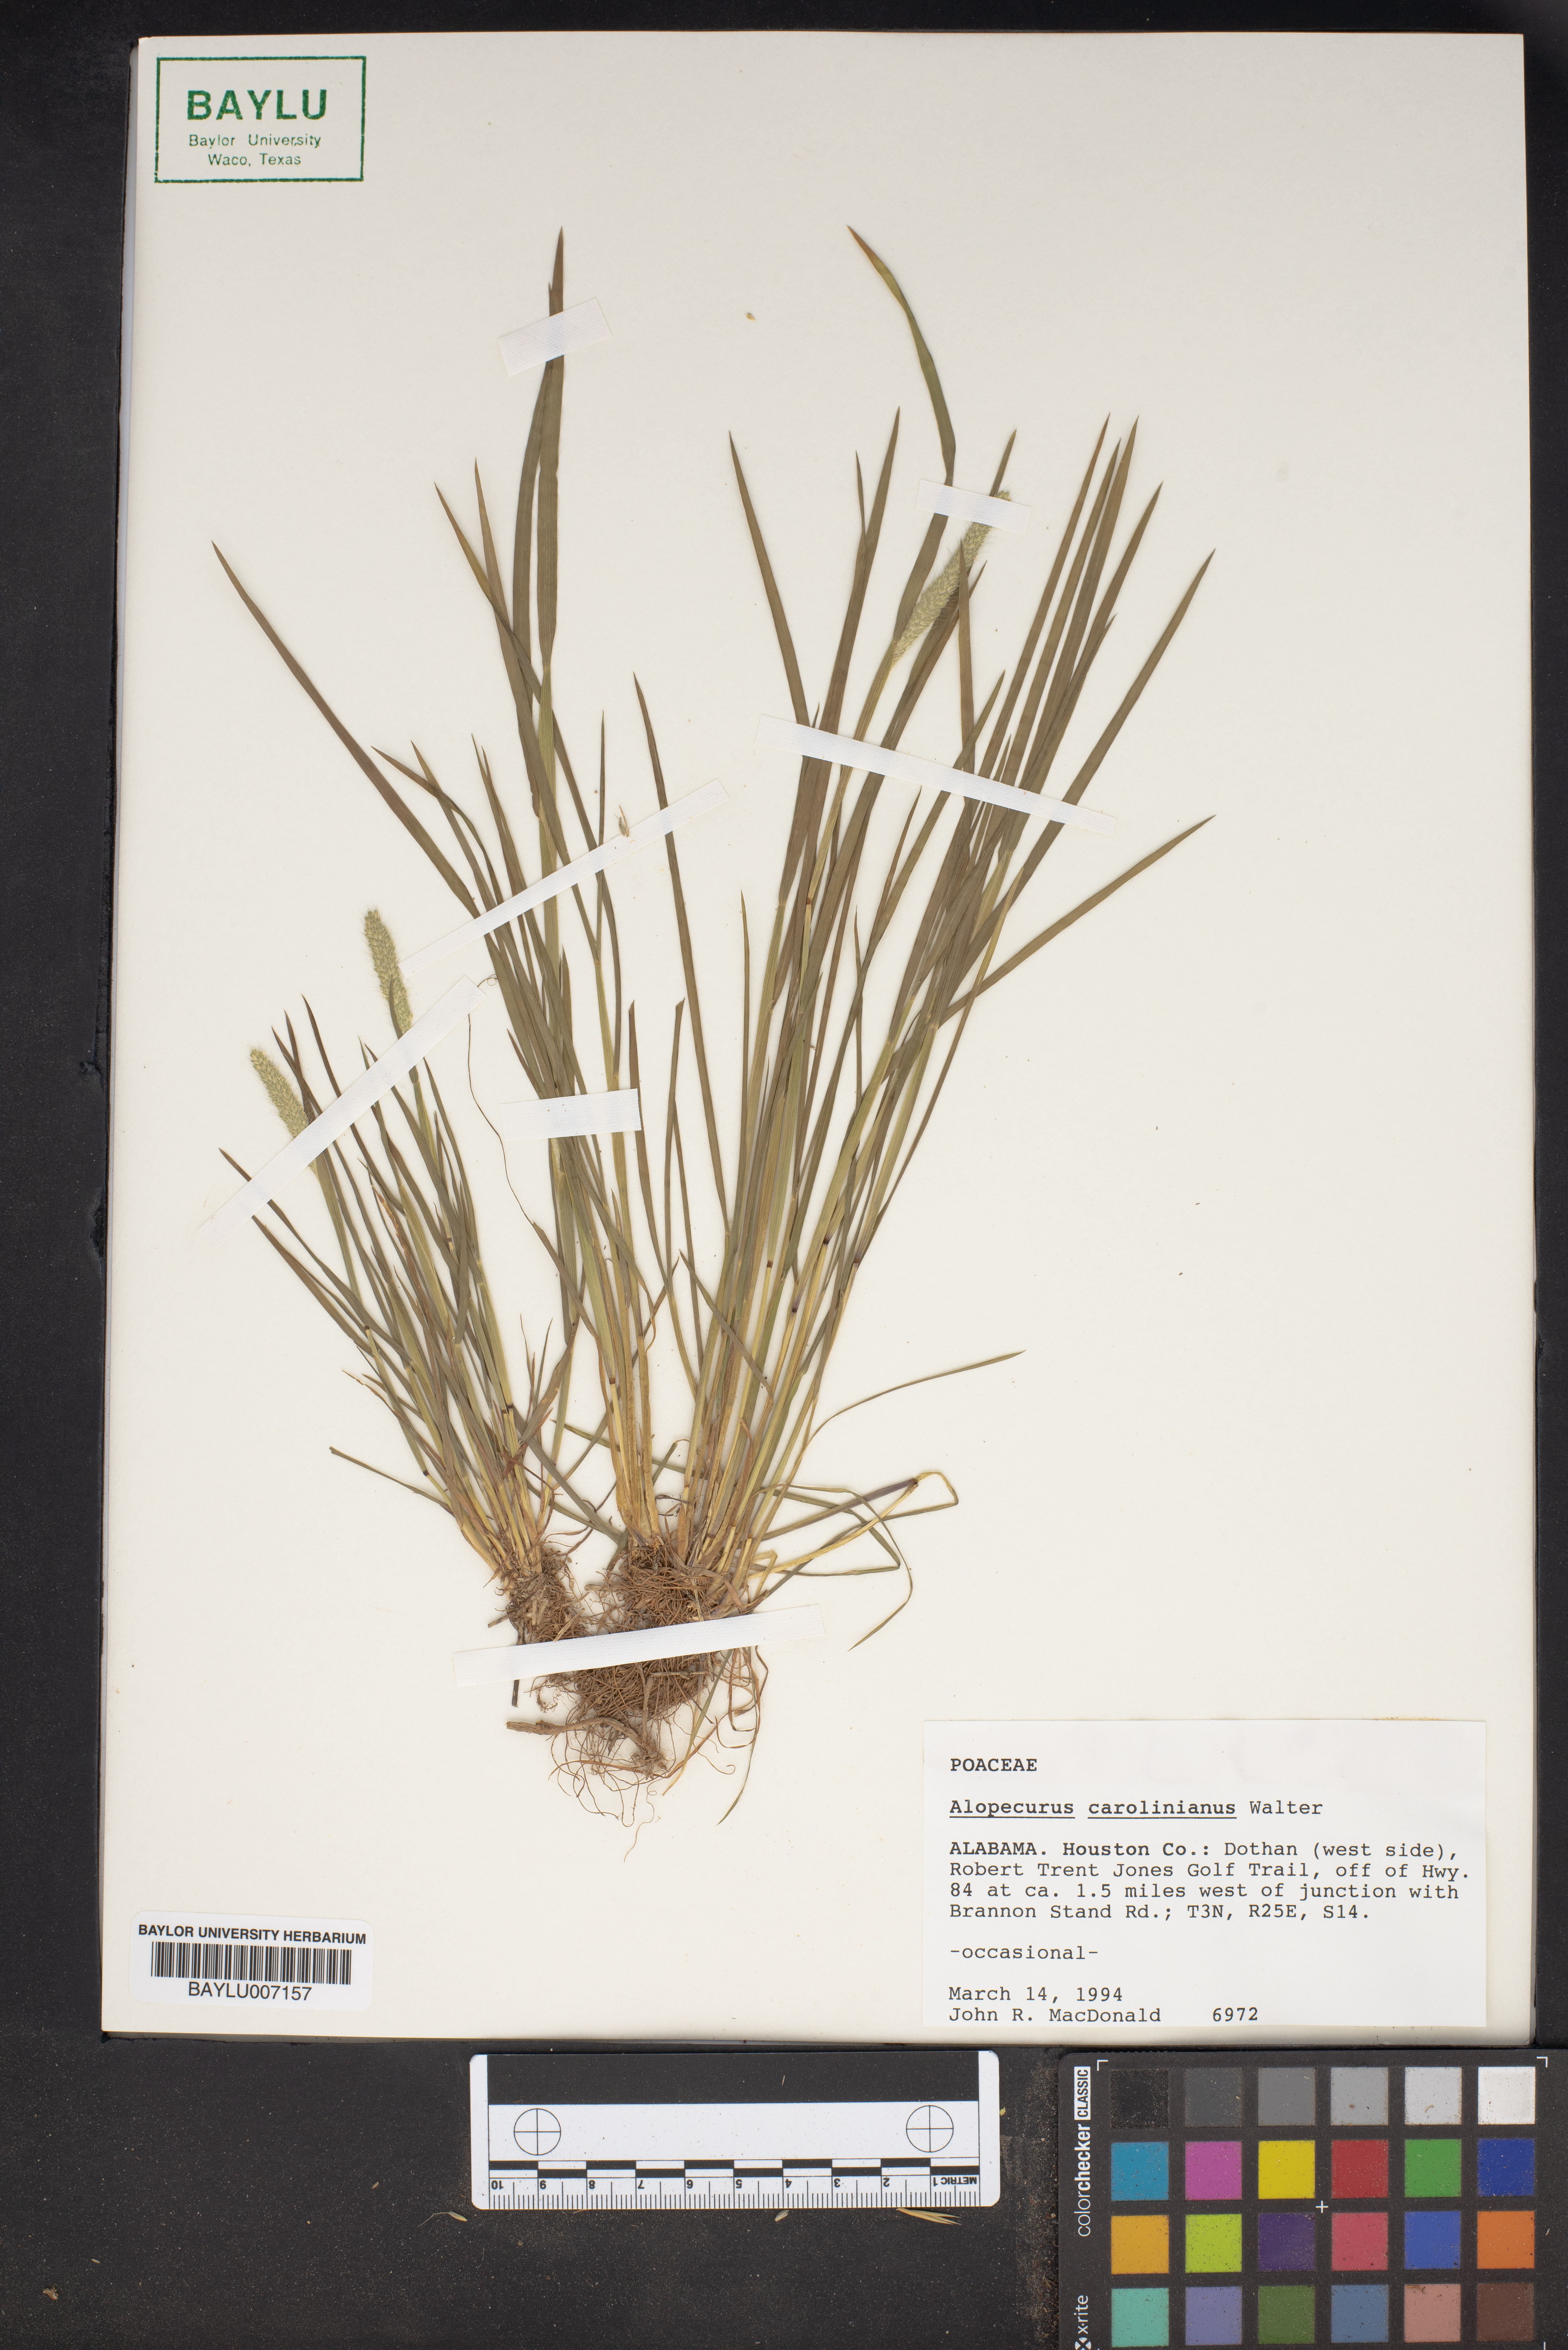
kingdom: Plantae
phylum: Tracheophyta
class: Liliopsida
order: Poales
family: Poaceae
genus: Alopecurus
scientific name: Alopecurus carolinianus
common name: Tufted foxtail
